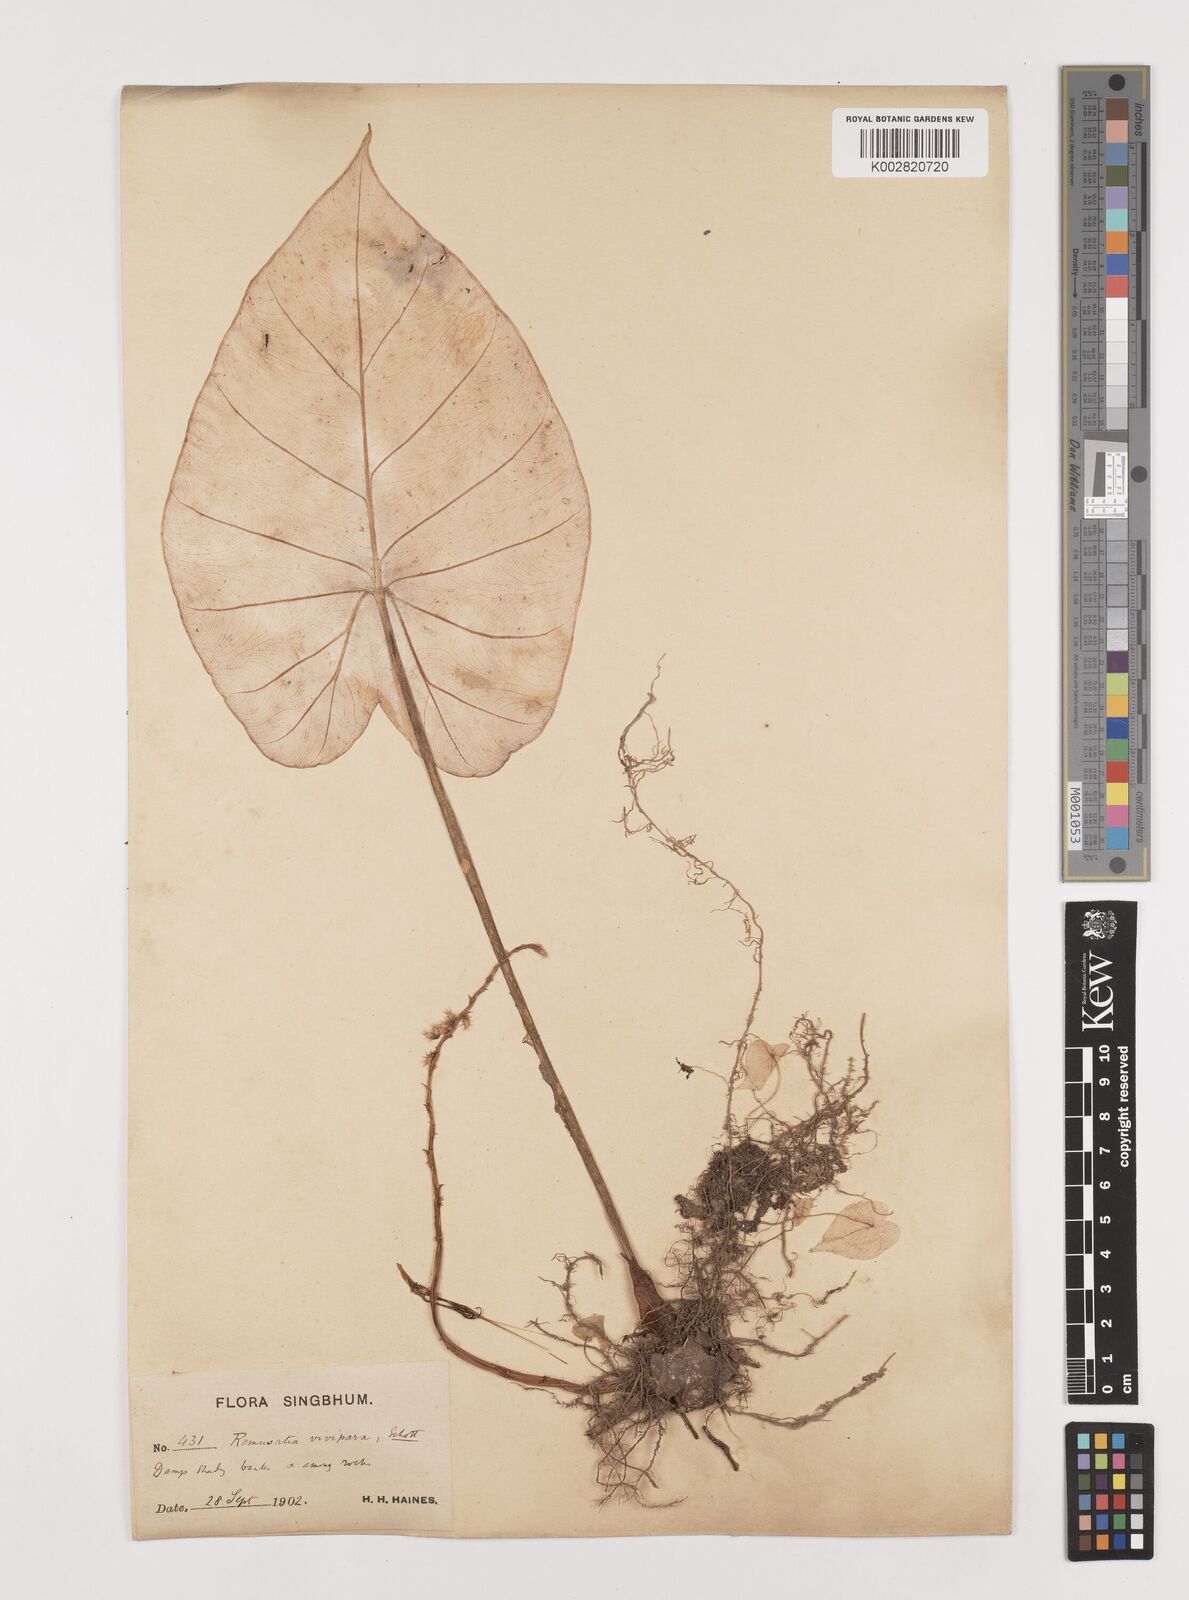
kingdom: Plantae
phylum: Tracheophyta
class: Liliopsida
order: Alismatales
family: Araceae
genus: Remusatia
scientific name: Remusatia vivipara
